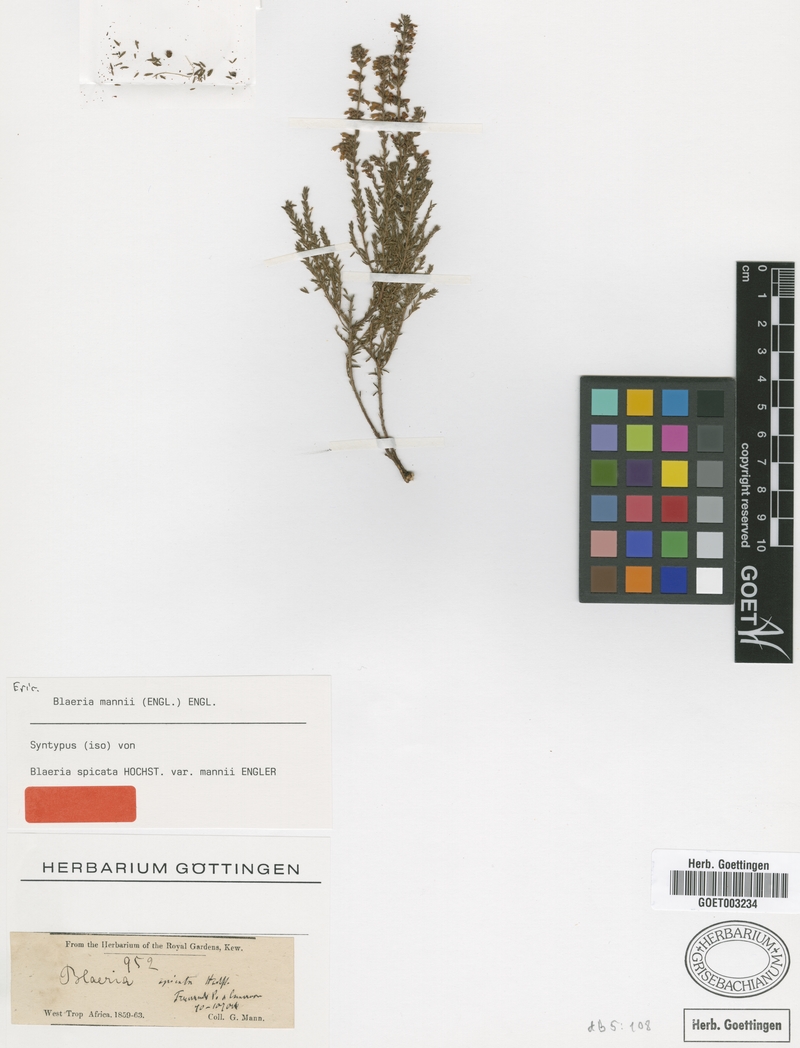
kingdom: Plantae
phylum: Tracheophyta
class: Magnoliopsida
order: Ericales
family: Ericaceae
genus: Erica
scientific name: Erica silvatica
